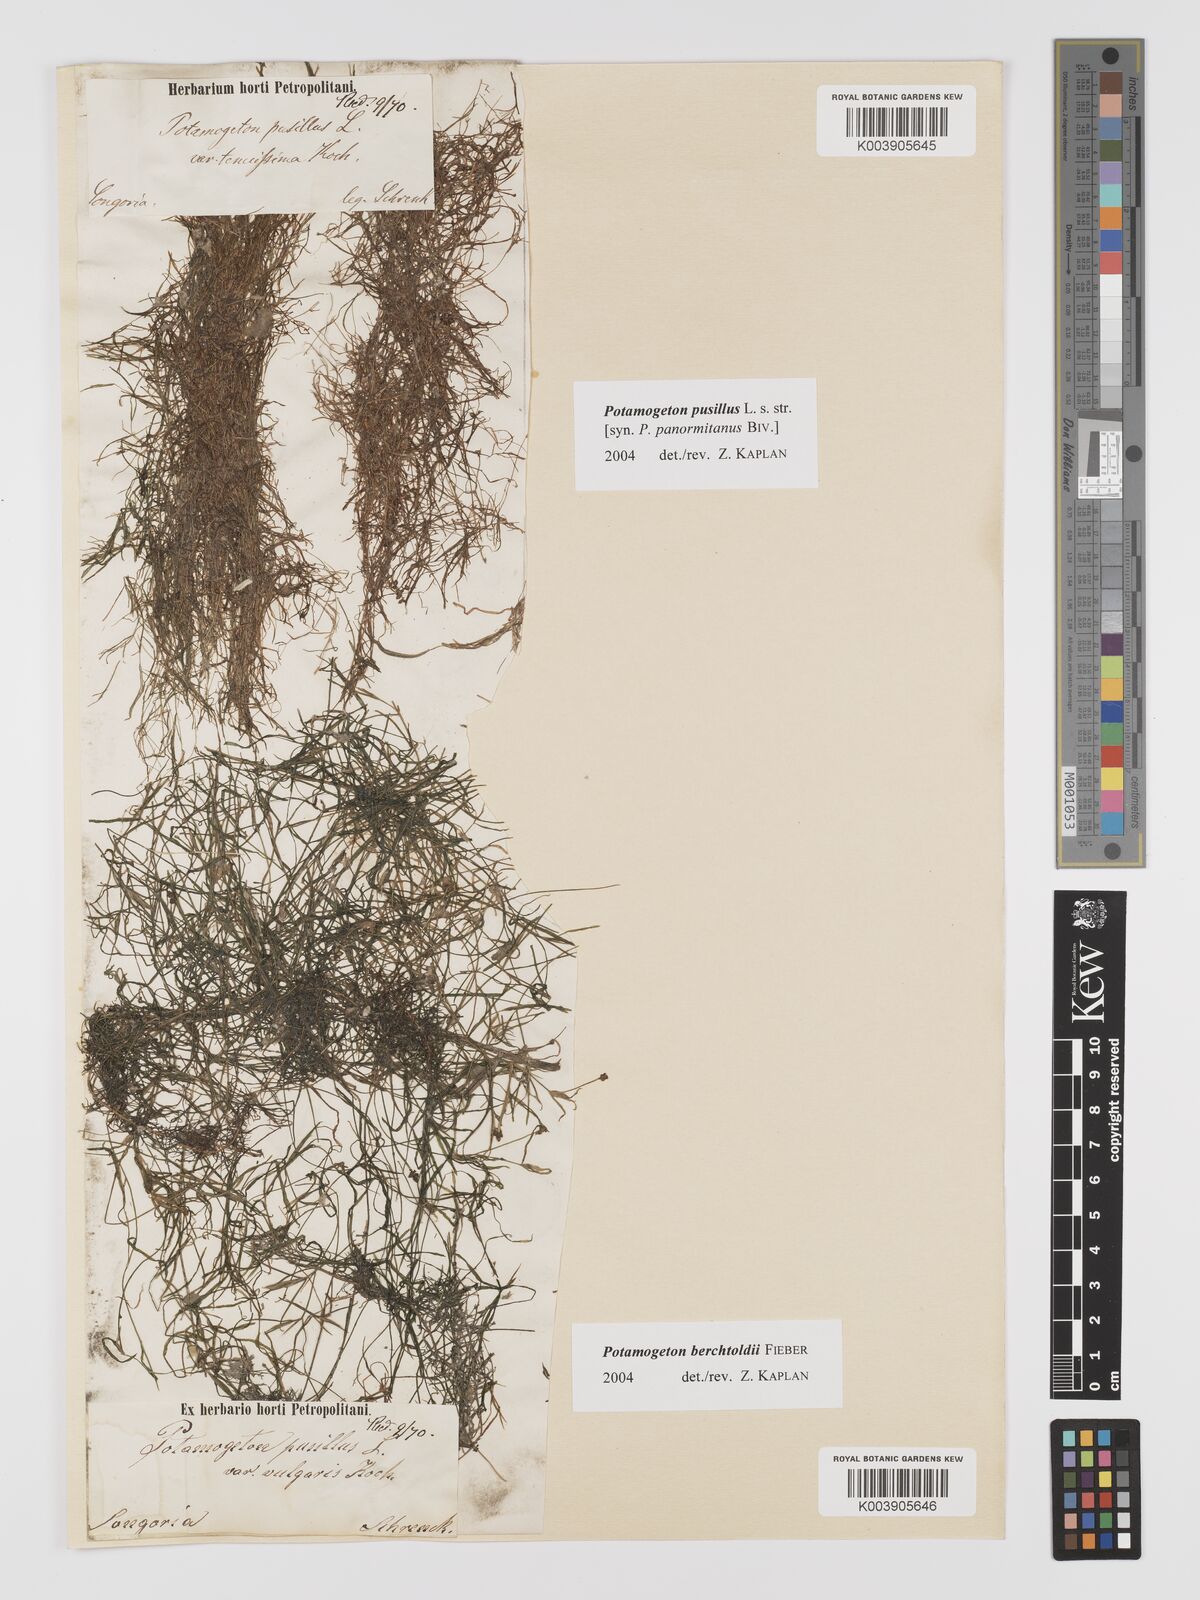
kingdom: Plantae
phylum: Tracheophyta
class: Liliopsida
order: Alismatales
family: Potamogetonaceae
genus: Potamogeton
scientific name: Potamogeton pusillus
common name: Lesser pondweed
